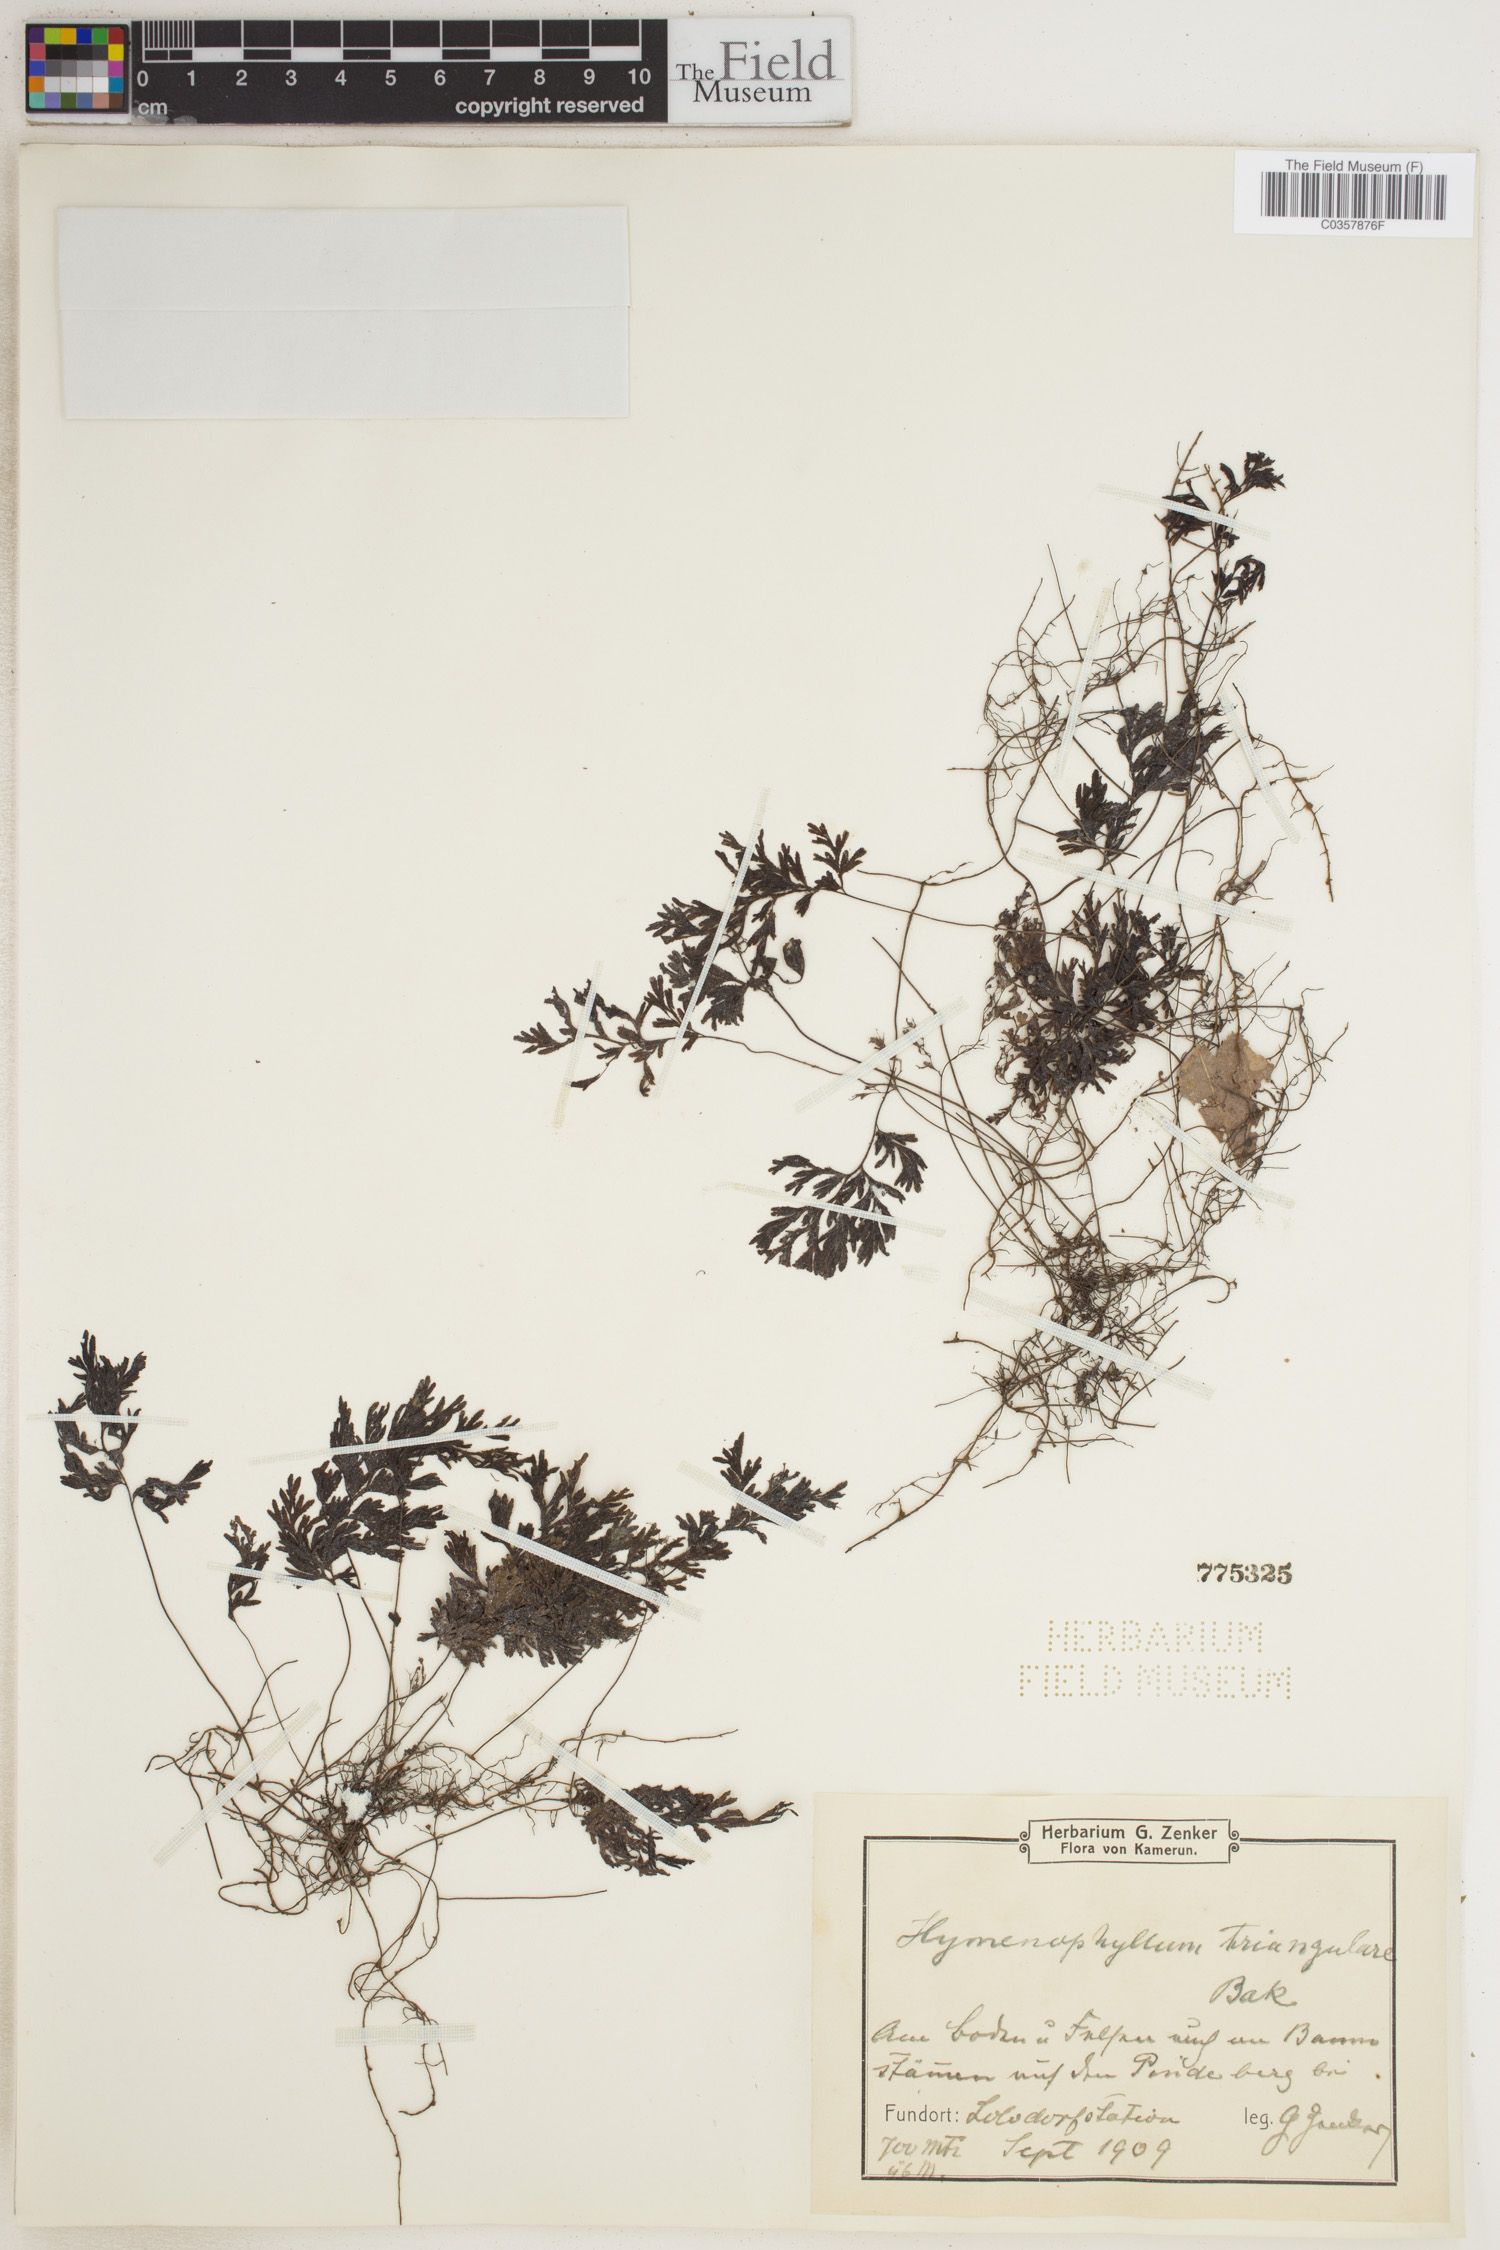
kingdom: Plantae
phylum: Tracheophyta
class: Polypodiopsida
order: Hymenophyllales
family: Hymenophyllaceae
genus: Hymenophyllum
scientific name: Hymenophyllum triangulare
